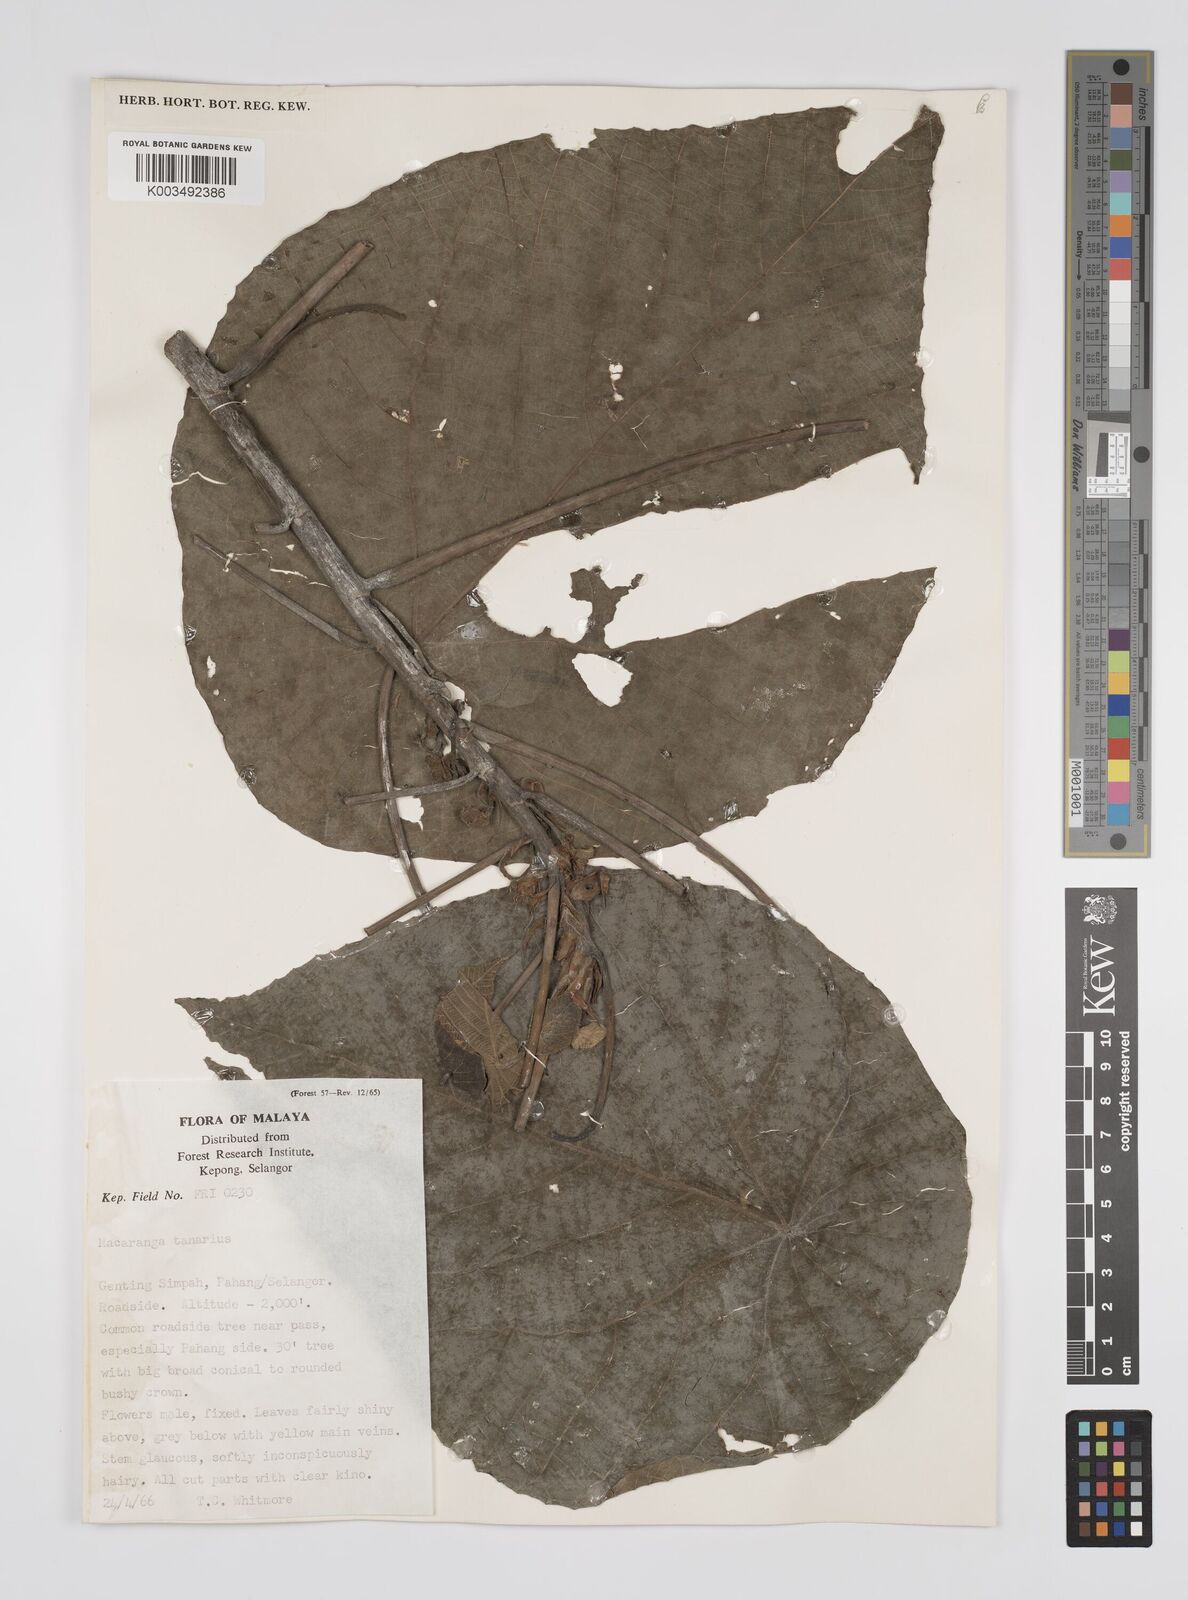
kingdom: Plantae
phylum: Tracheophyta
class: Magnoliopsida
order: Malpighiales
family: Euphorbiaceae
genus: Macaranga
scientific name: Macaranga tanarius
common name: Parasol leaf tree
